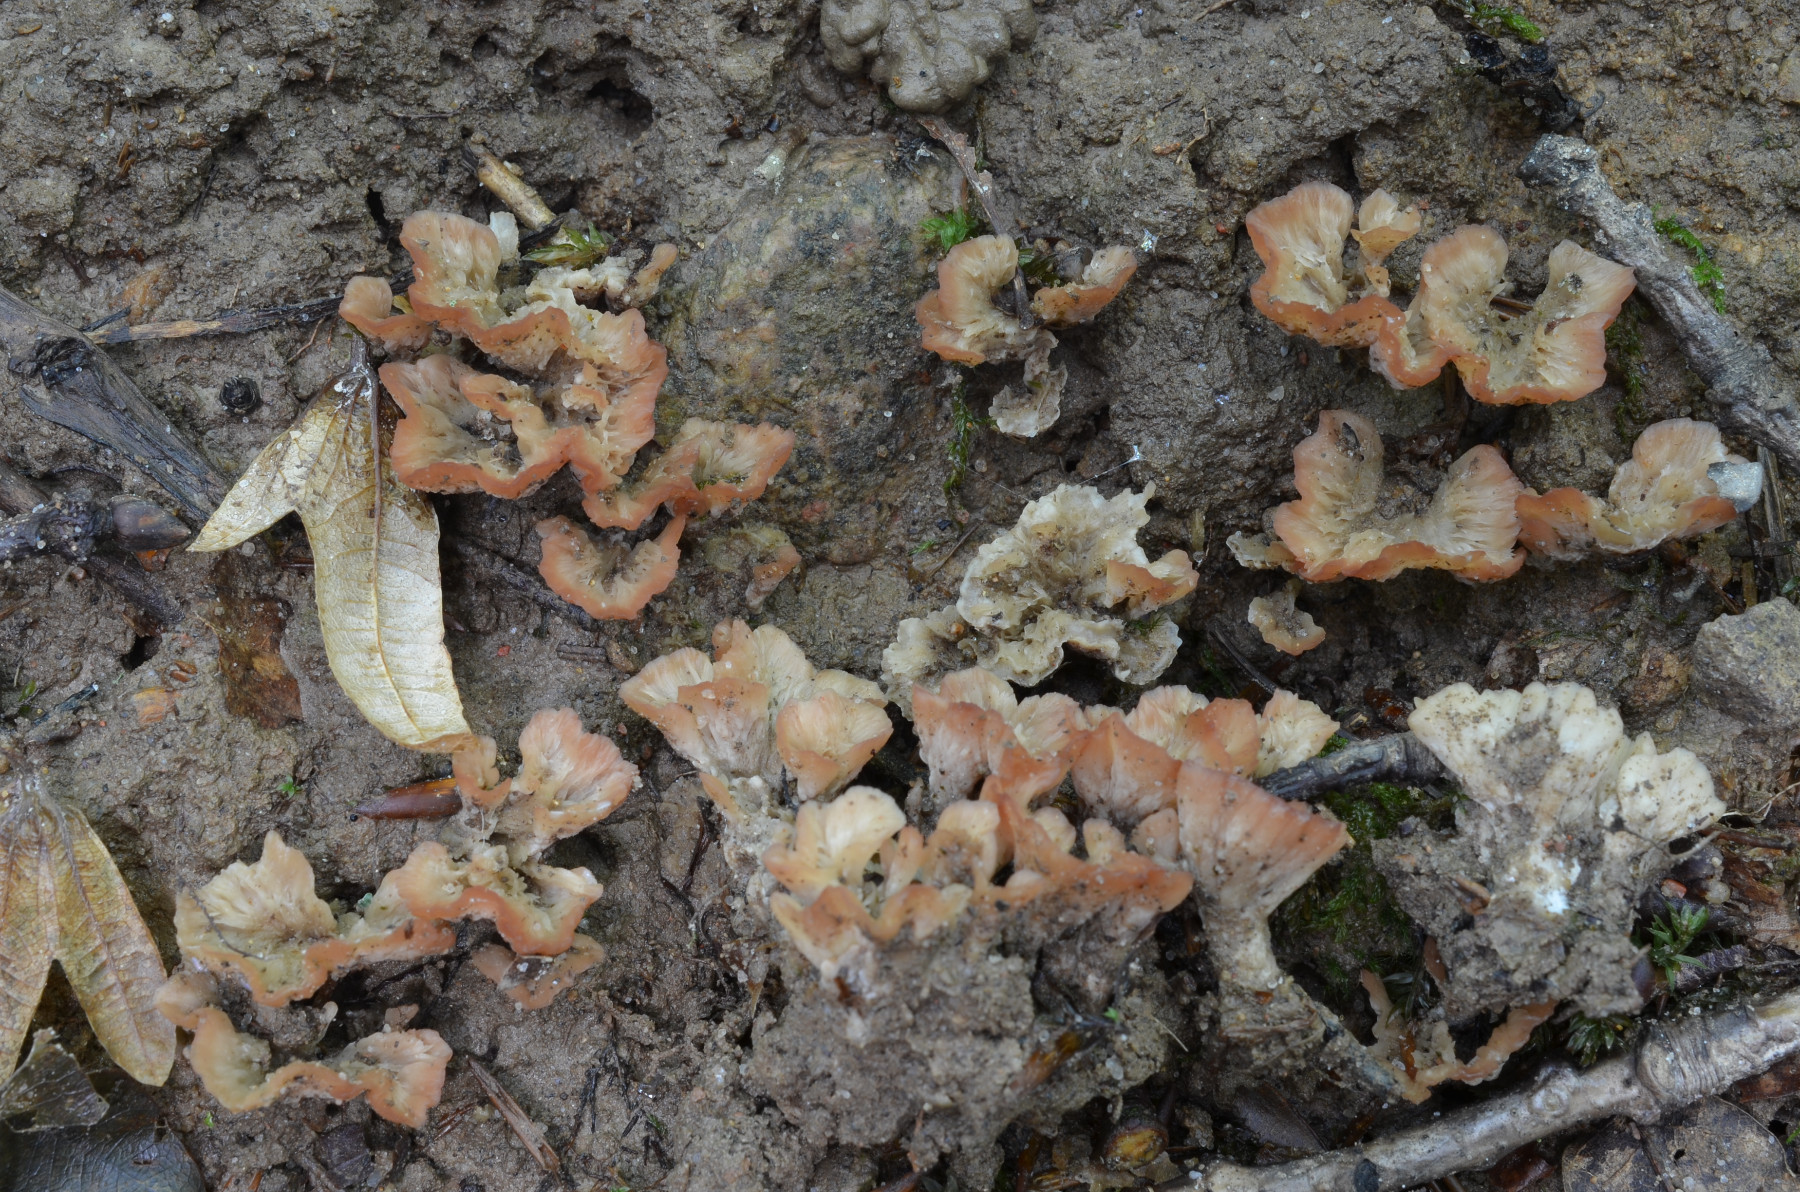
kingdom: Fungi
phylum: Basidiomycota
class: Agaricomycetes
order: Hymenochaetales
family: Rickenellaceae
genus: Cotylidia
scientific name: Cotylidia pannosa
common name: vifte-navlesvamp
